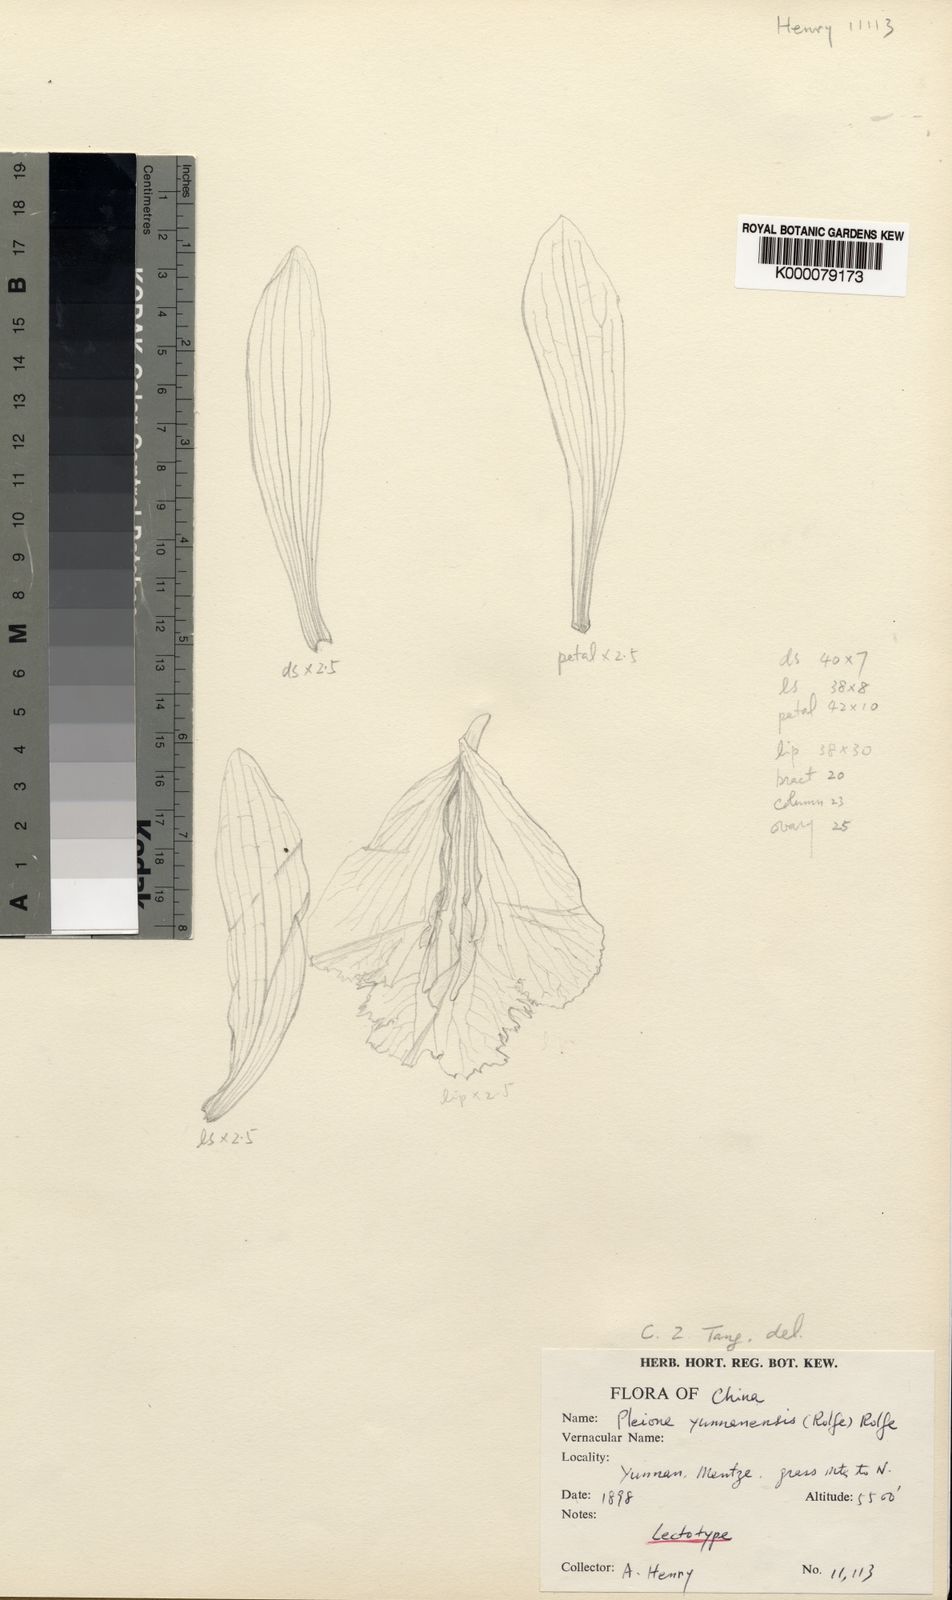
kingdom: Plantae
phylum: Tracheophyta
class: Liliopsida
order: Asparagales
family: Orchidaceae
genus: Pleione
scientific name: Pleione yunnanensis
